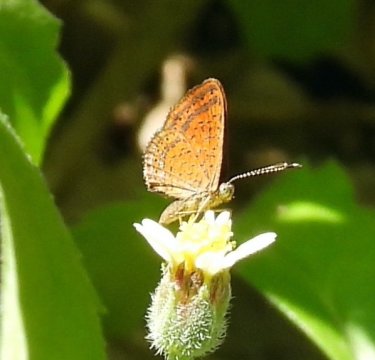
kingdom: Animalia
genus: Calephelis
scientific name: Calephelis nemesis
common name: Fatal Metalmark
